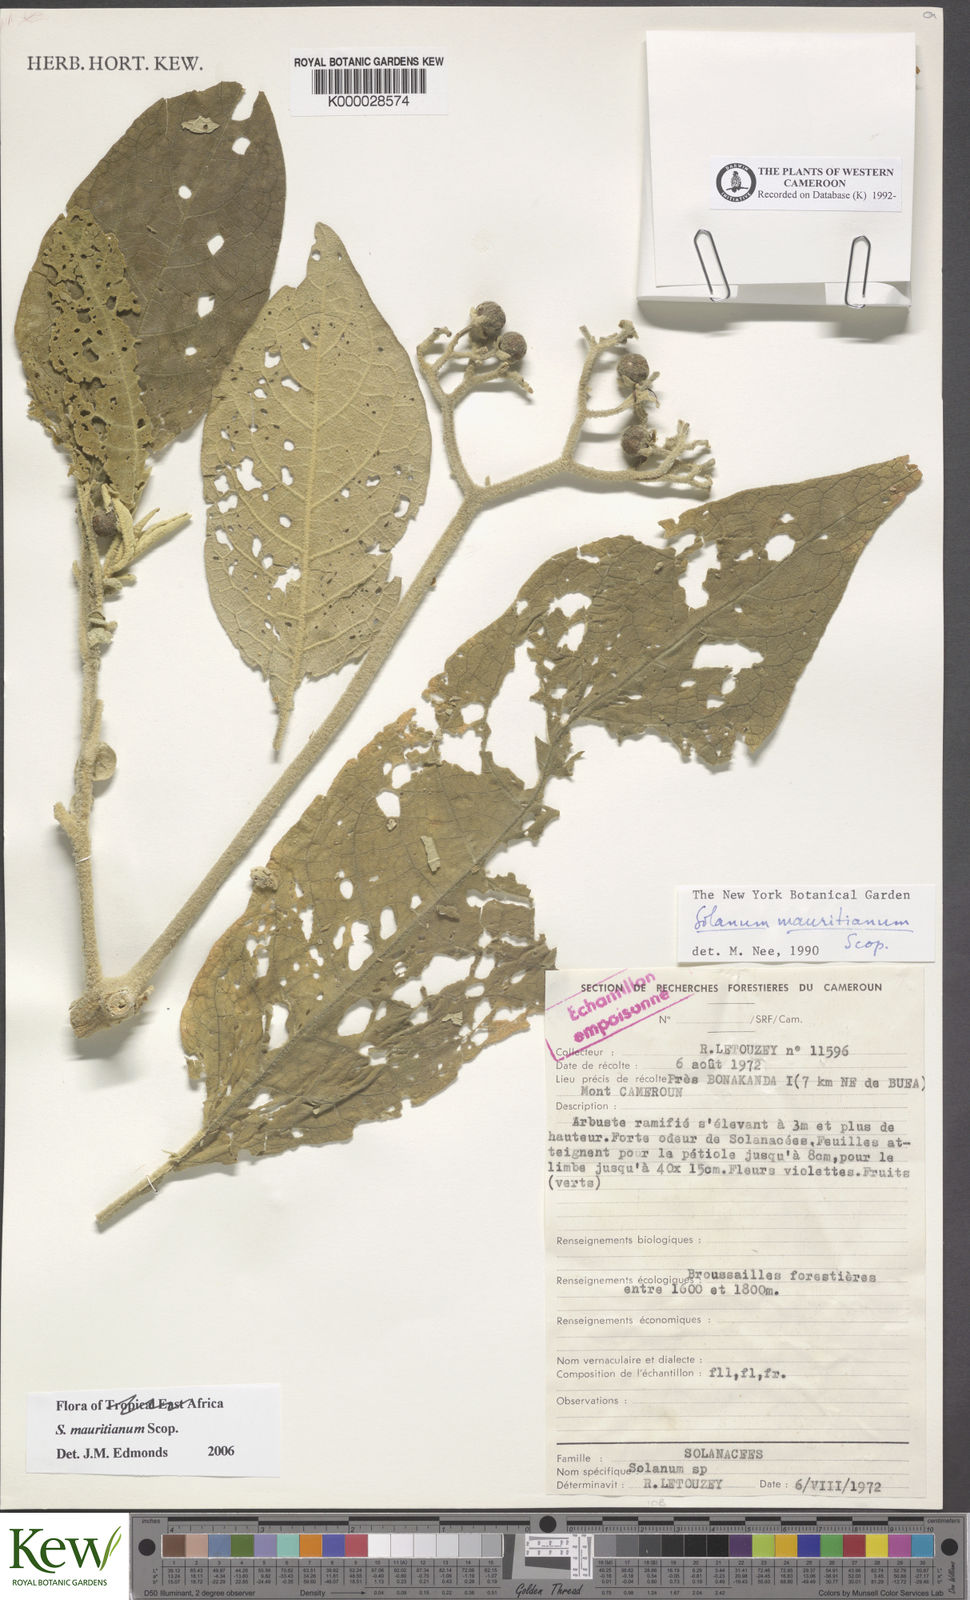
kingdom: Plantae
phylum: Tracheophyta
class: Magnoliopsida
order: Solanales
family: Solanaceae
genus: Solanum
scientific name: Solanum mauritianum
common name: Earleaf nightshade
